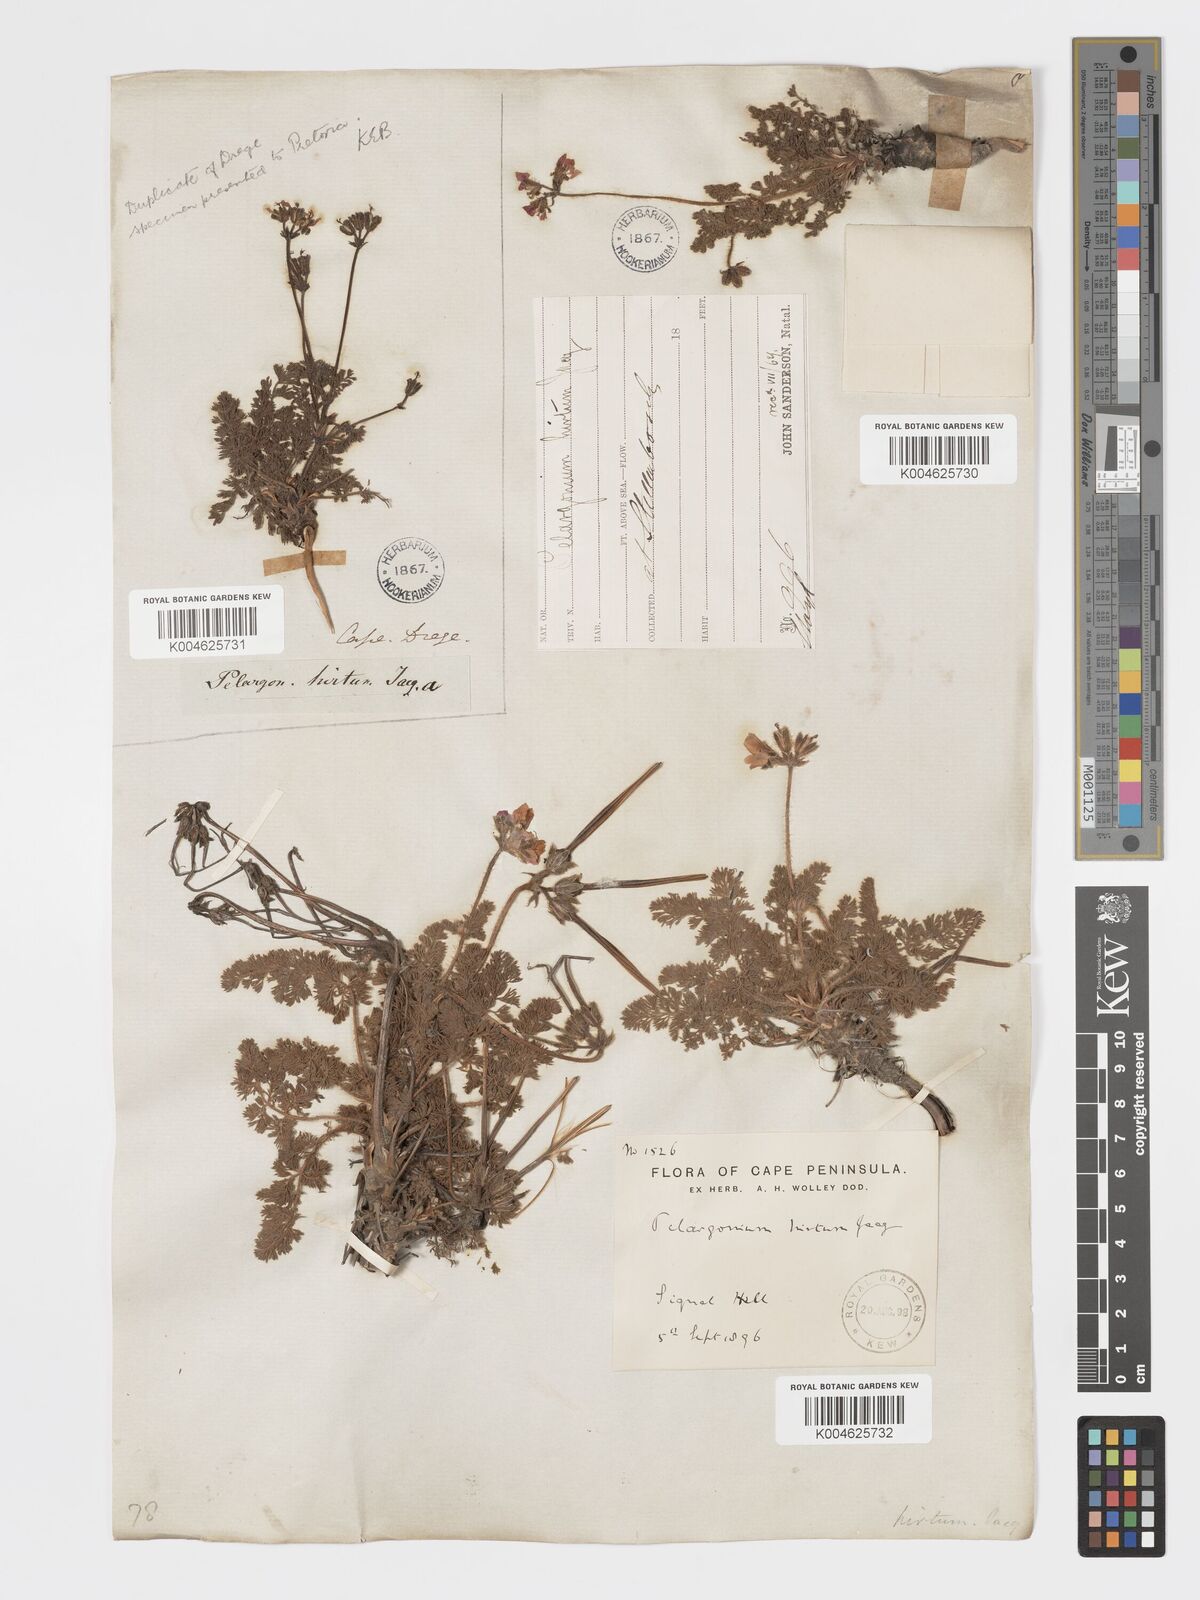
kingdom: Plantae
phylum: Tracheophyta
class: Magnoliopsida
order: Geraniales
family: Geraniaceae
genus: Pelargonium
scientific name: Pelargonium
